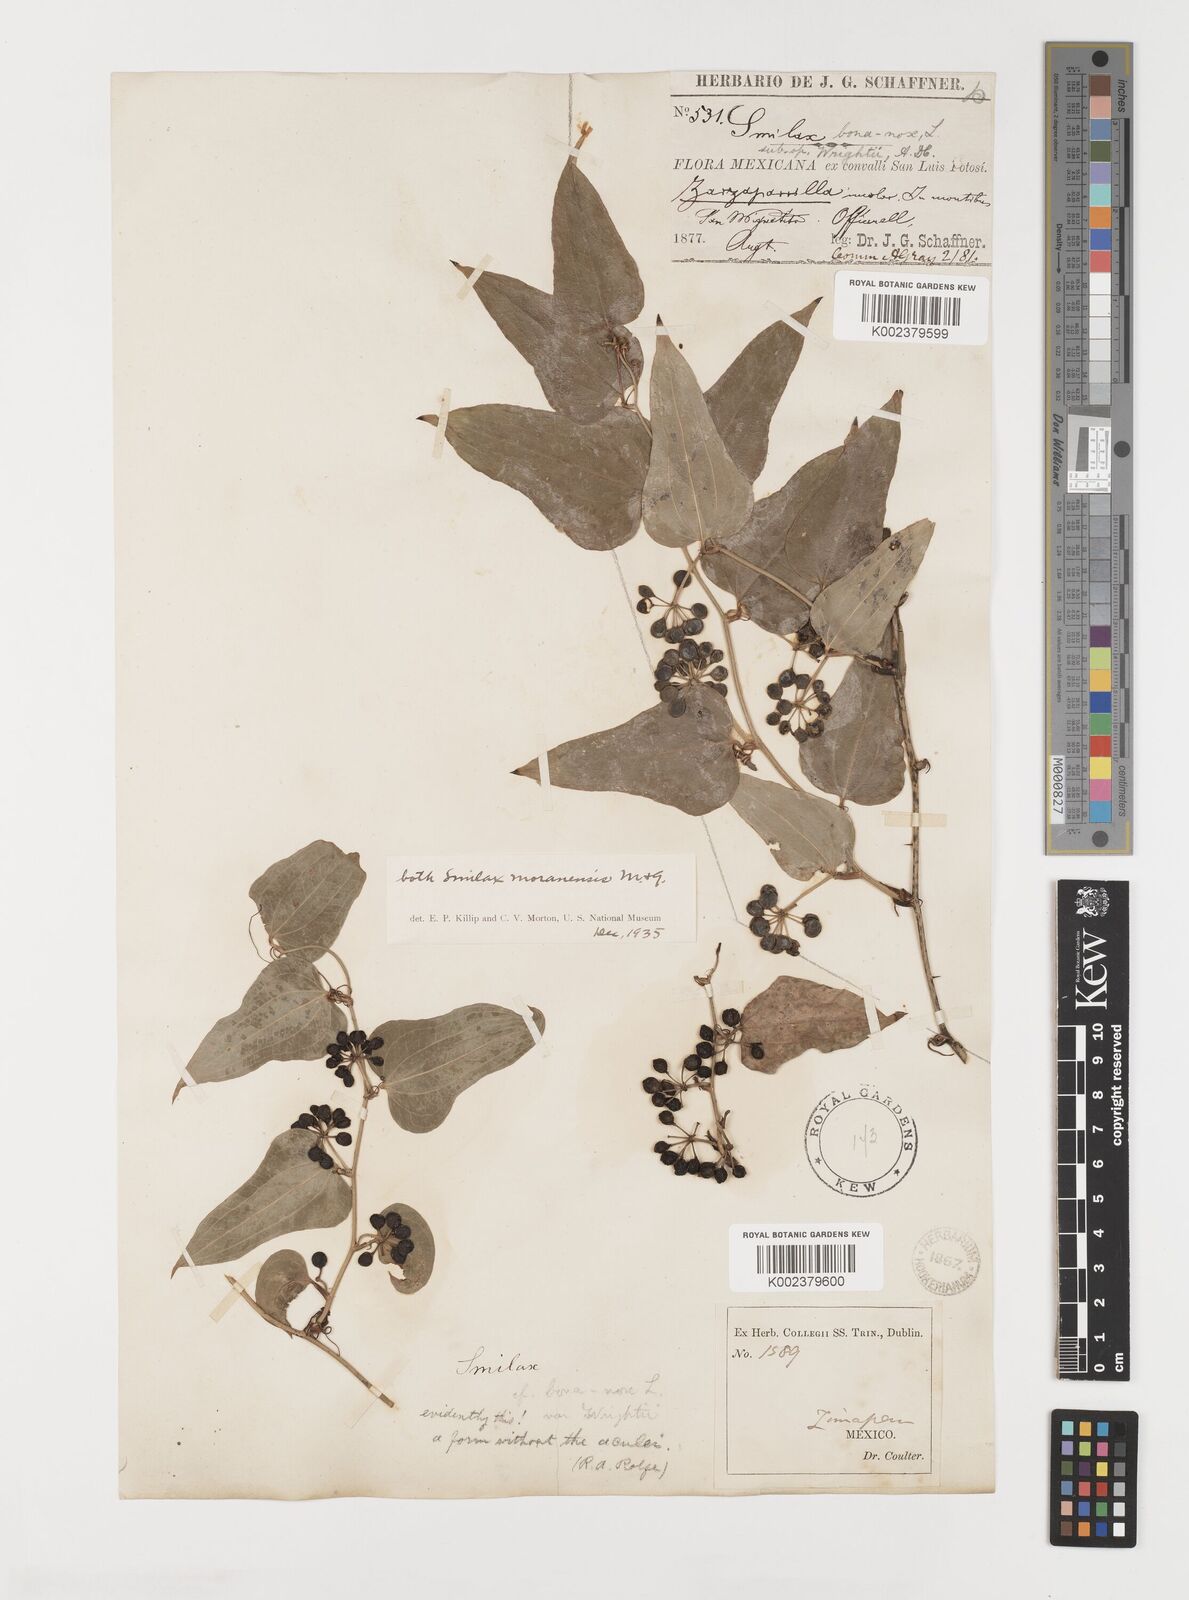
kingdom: Plantae
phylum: Tracheophyta
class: Liliopsida
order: Liliales
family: Smilacaceae
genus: Smilax
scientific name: Smilax moranensis
